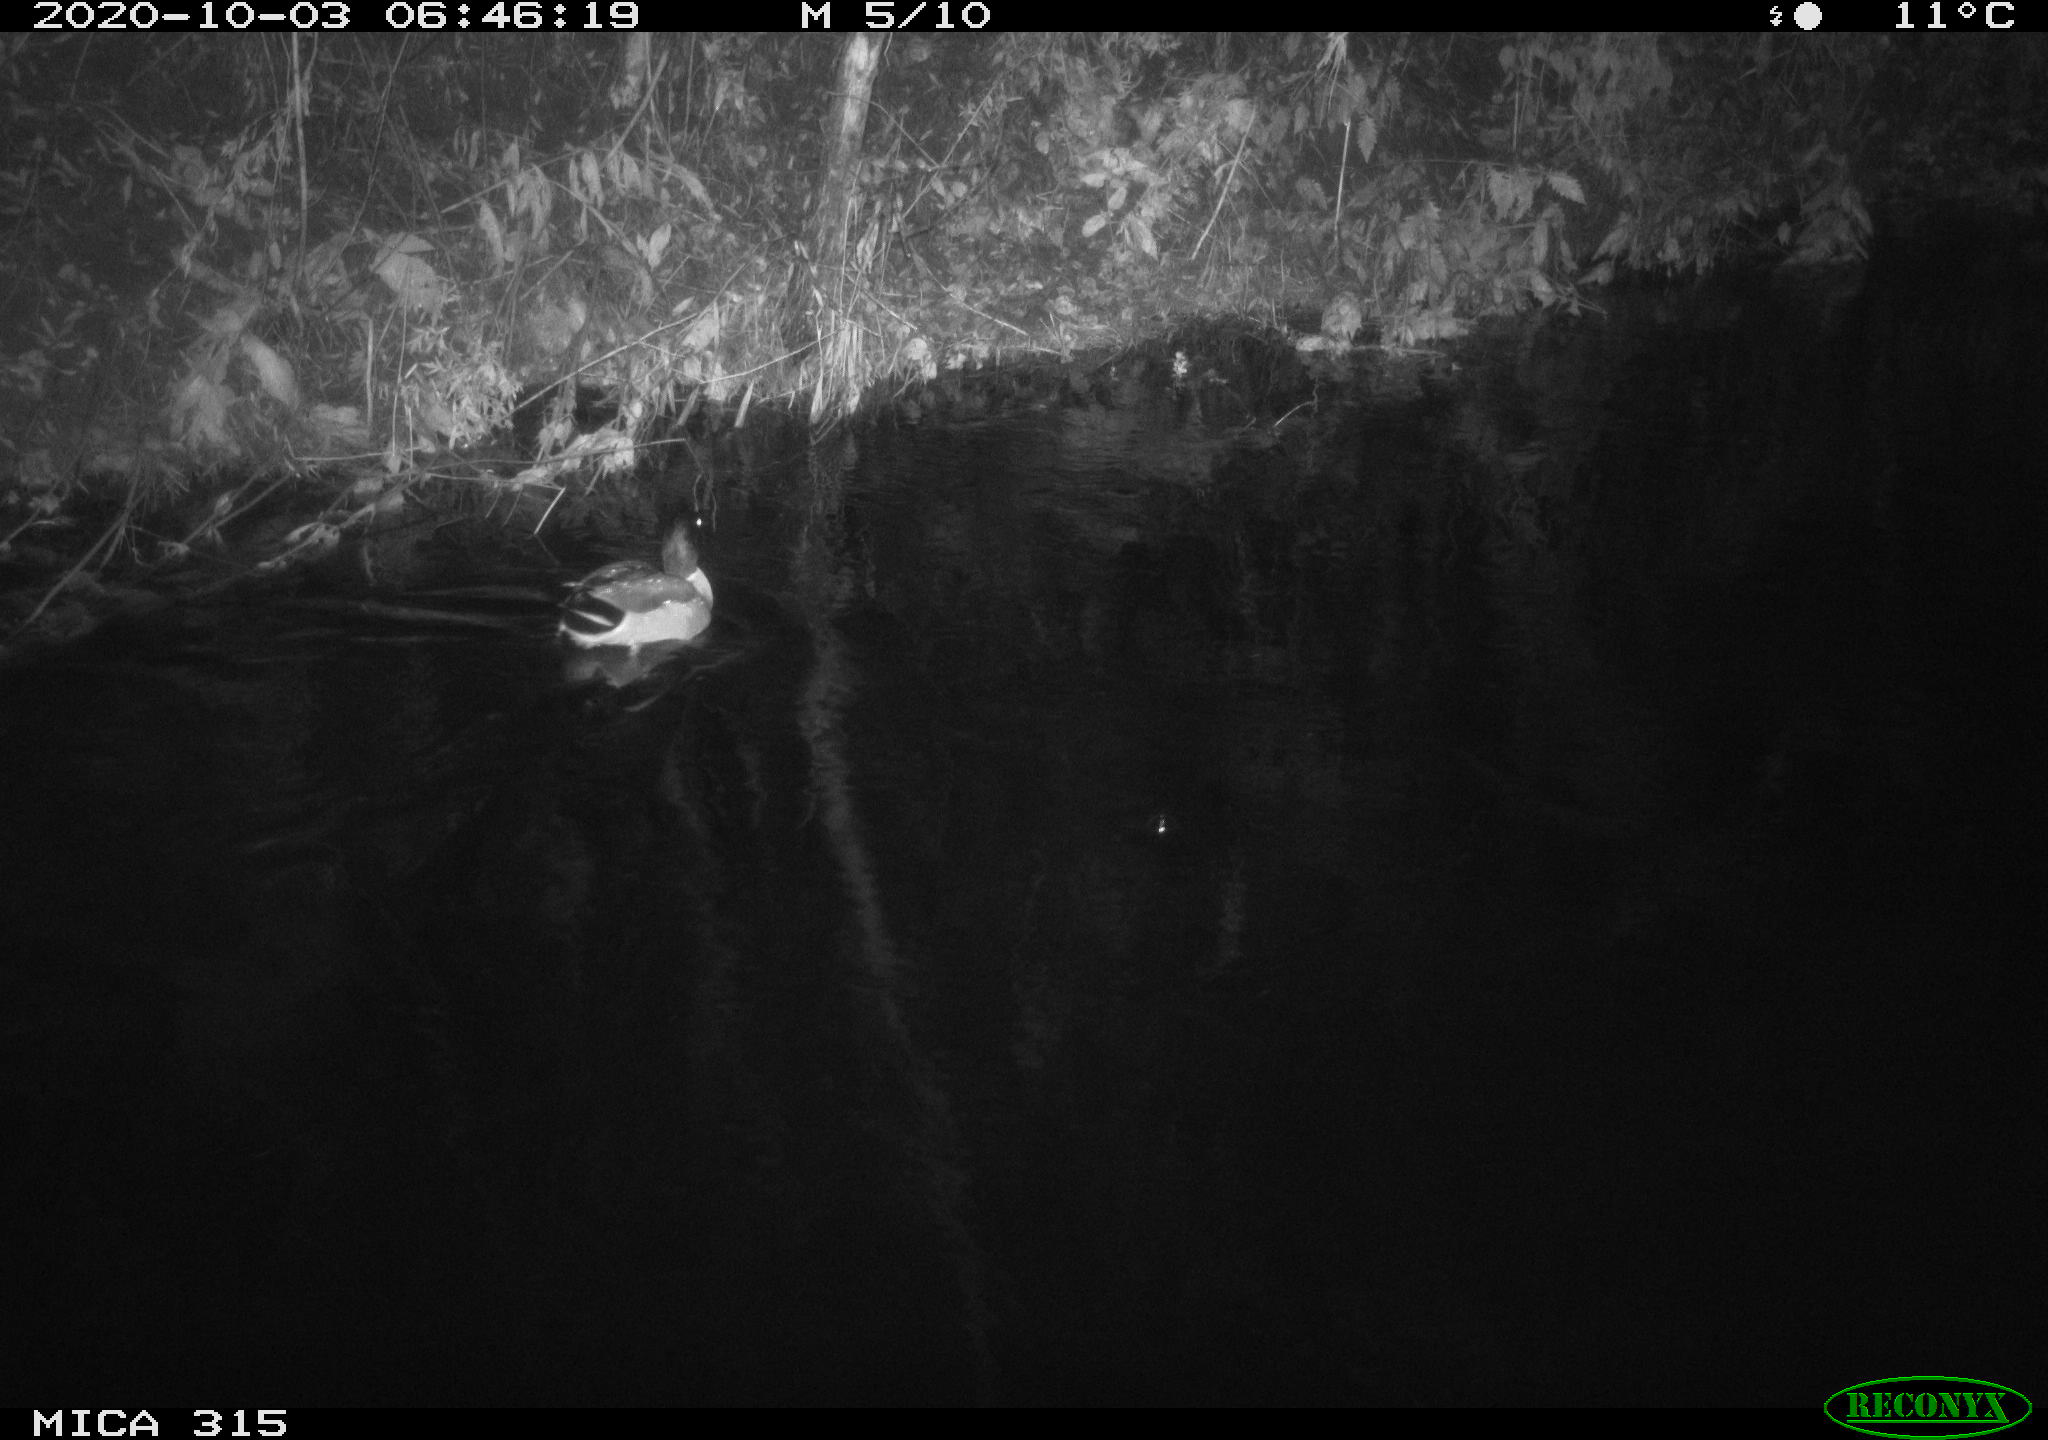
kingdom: Animalia
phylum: Chordata
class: Aves
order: Anseriformes
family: Anatidae
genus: Anas
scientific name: Anas platyrhynchos
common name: Mallard
